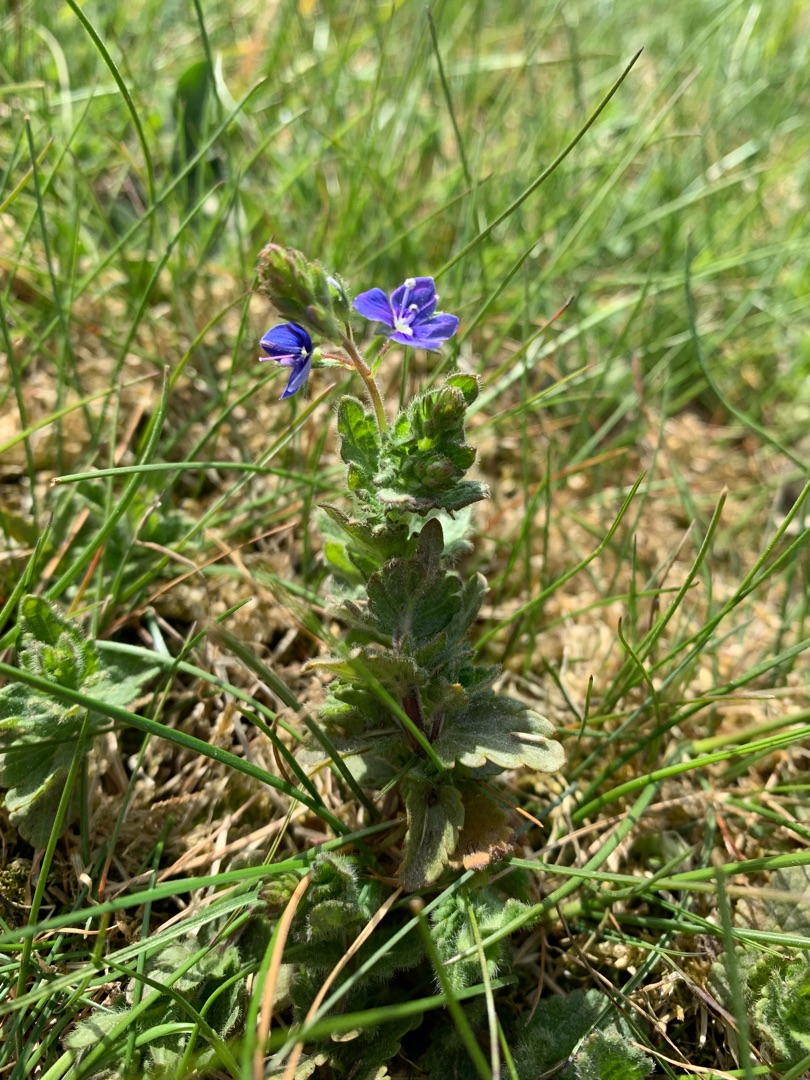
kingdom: Plantae
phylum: Tracheophyta
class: Magnoliopsida
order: Lamiales
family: Plantaginaceae
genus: Veronica
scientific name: Veronica chamaedrys
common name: Tveskægget ærenpris
